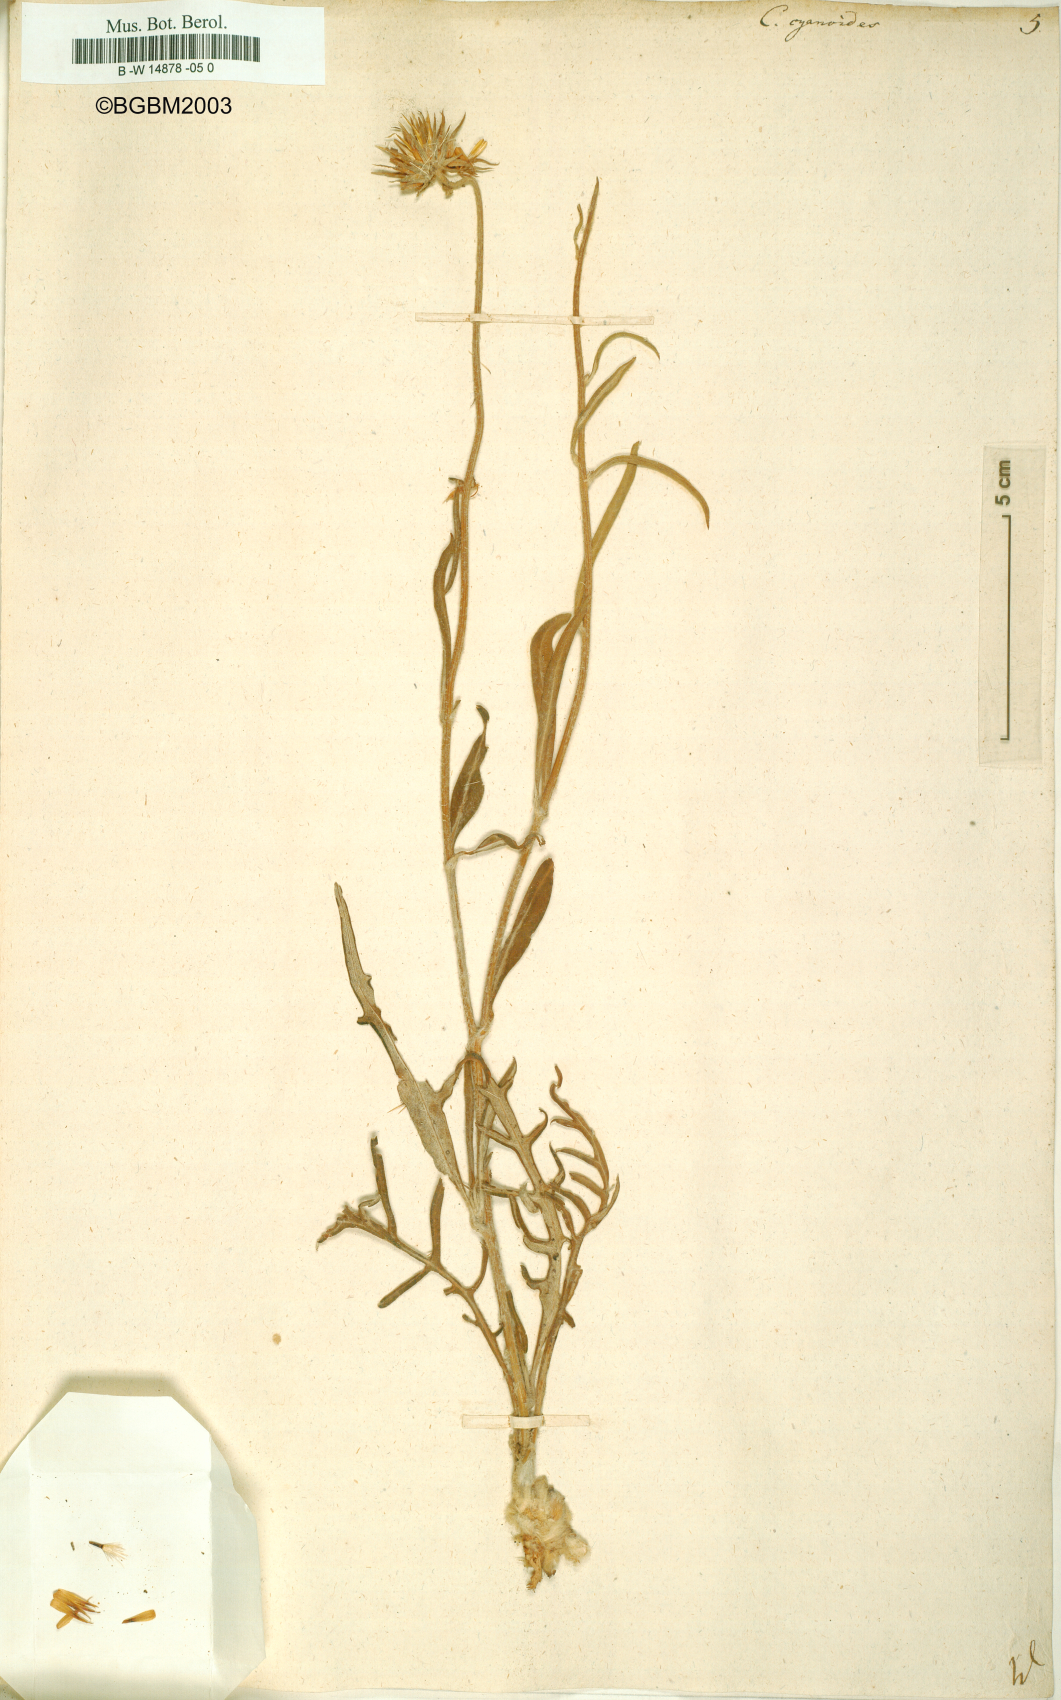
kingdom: Plantae
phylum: Tracheophyta
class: Magnoliopsida
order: Asterales
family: Asteraceae
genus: Jurinea
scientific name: Jurinea
